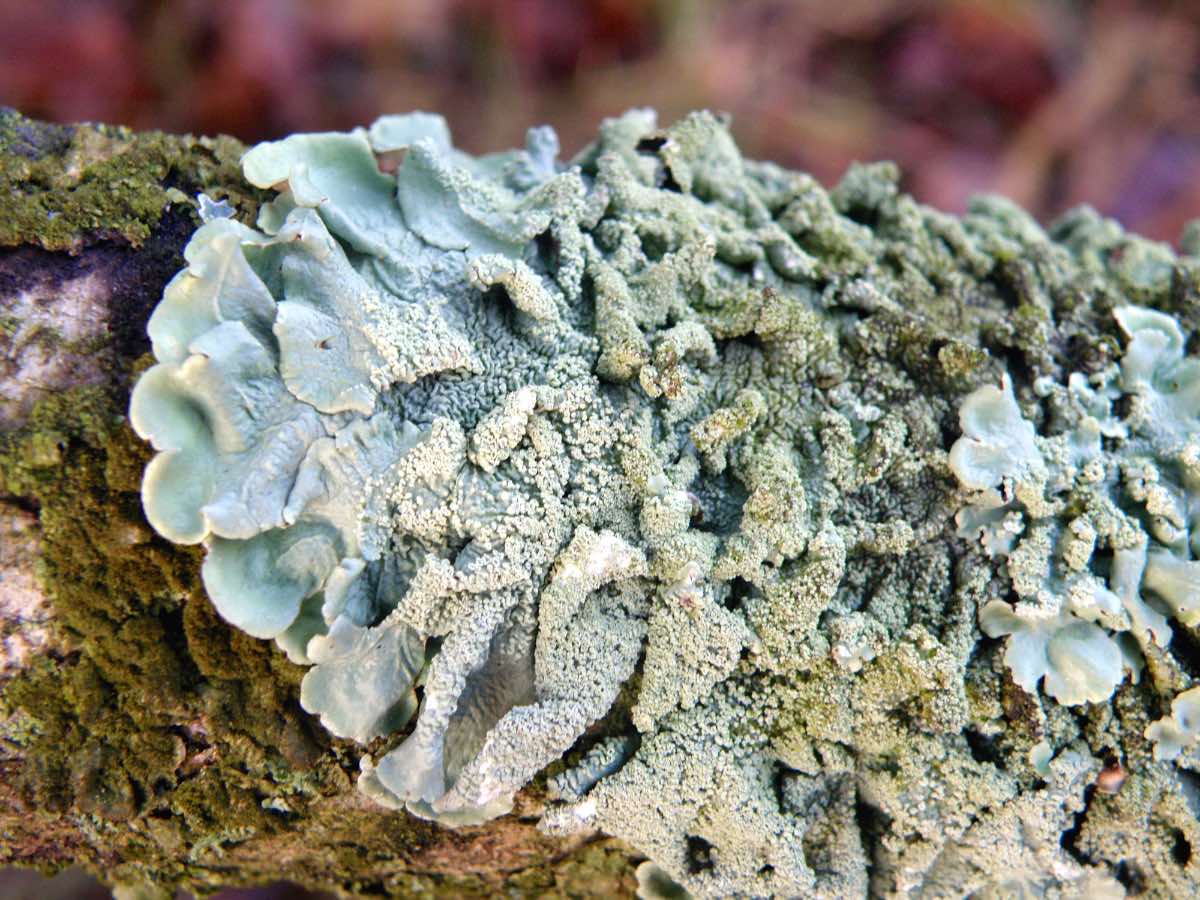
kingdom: Fungi
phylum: Ascomycota
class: Lecanoromycetes
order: Lecanorales
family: Parmeliaceae
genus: Flavoparmelia
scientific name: Flavoparmelia caperata
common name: gulgrøn skållav
